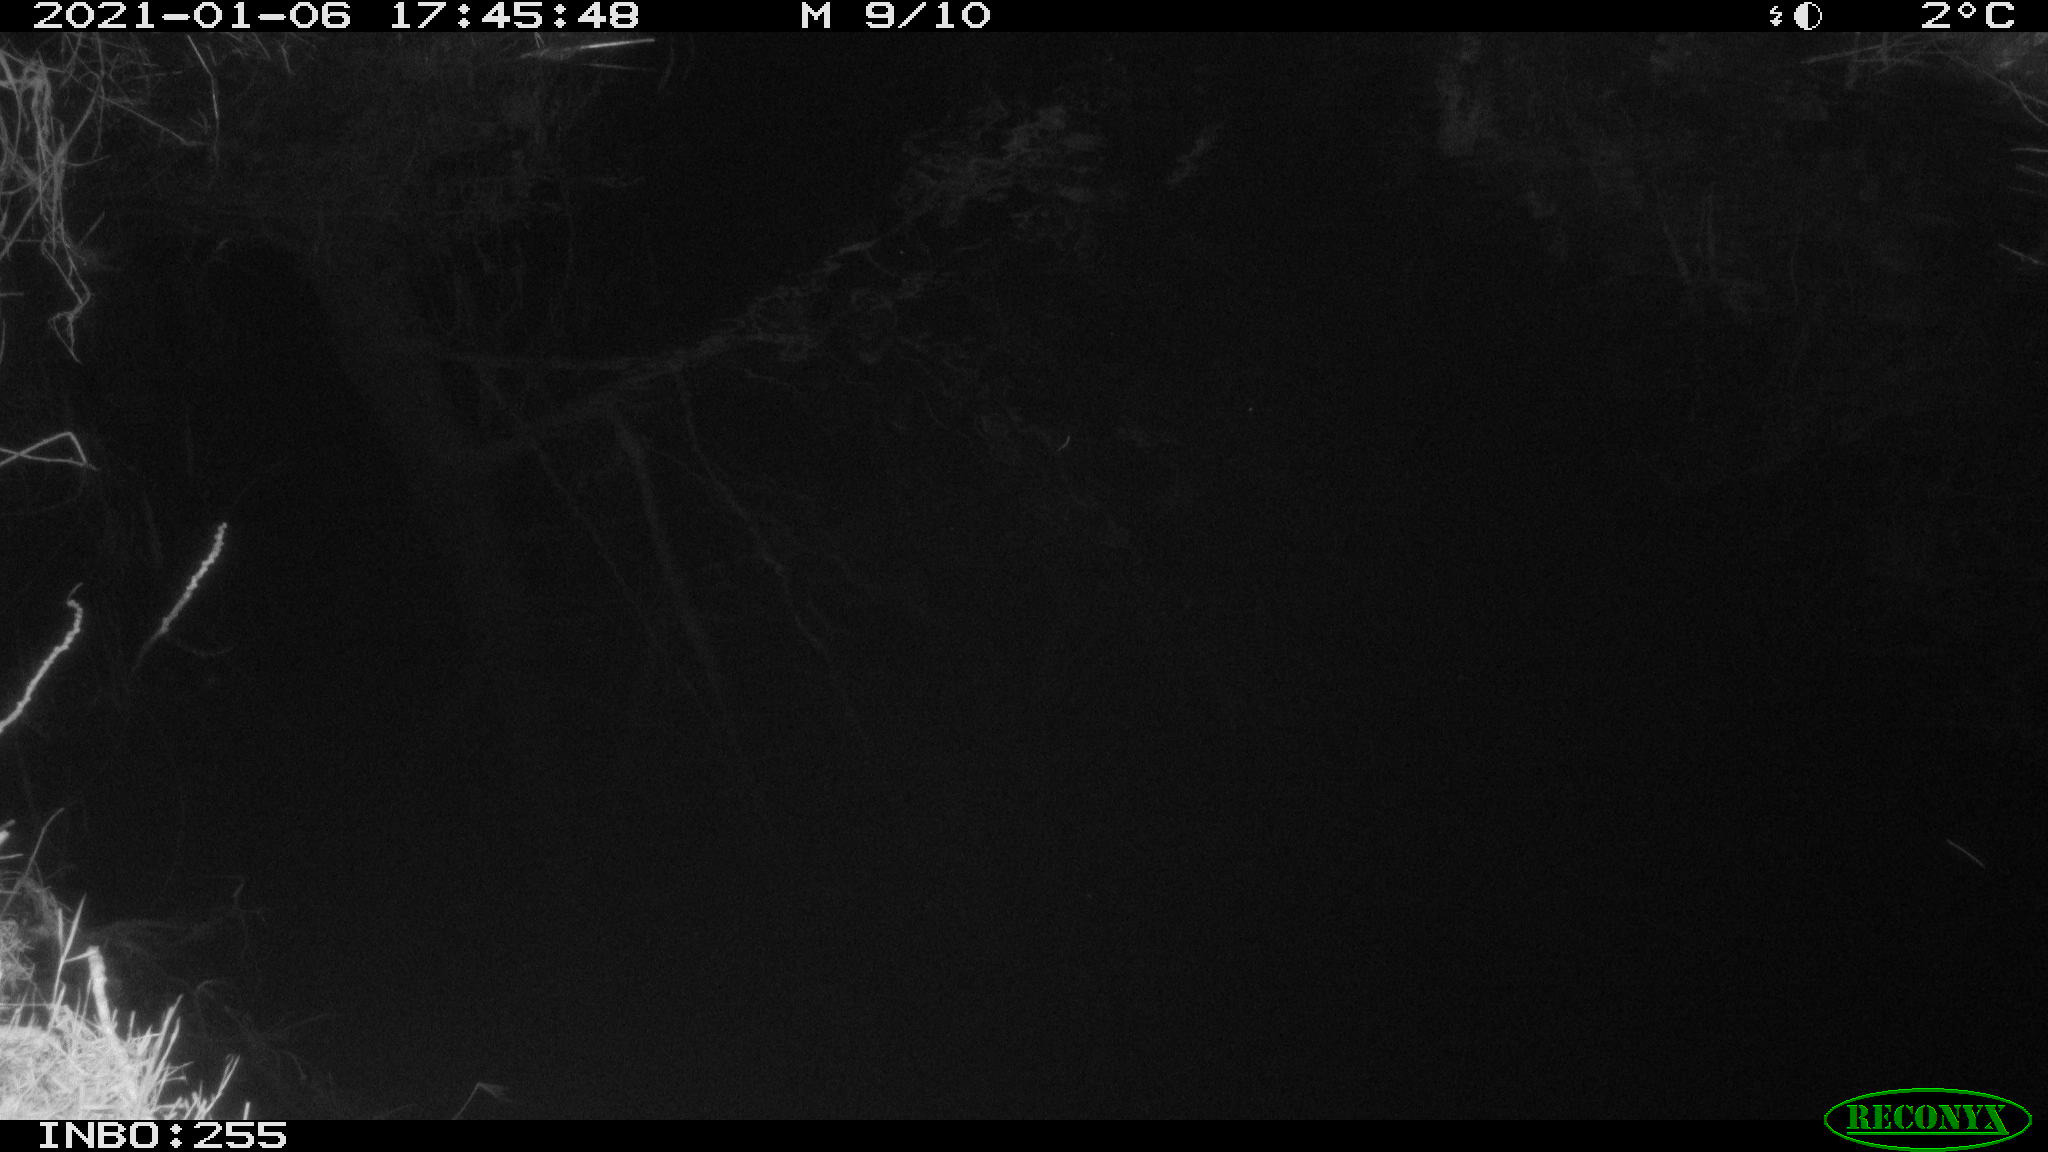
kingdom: Animalia
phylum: Chordata
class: Mammalia
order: Rodentia
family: Muridae
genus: Rattus
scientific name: Rattus norvegicus
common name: Brown rat
